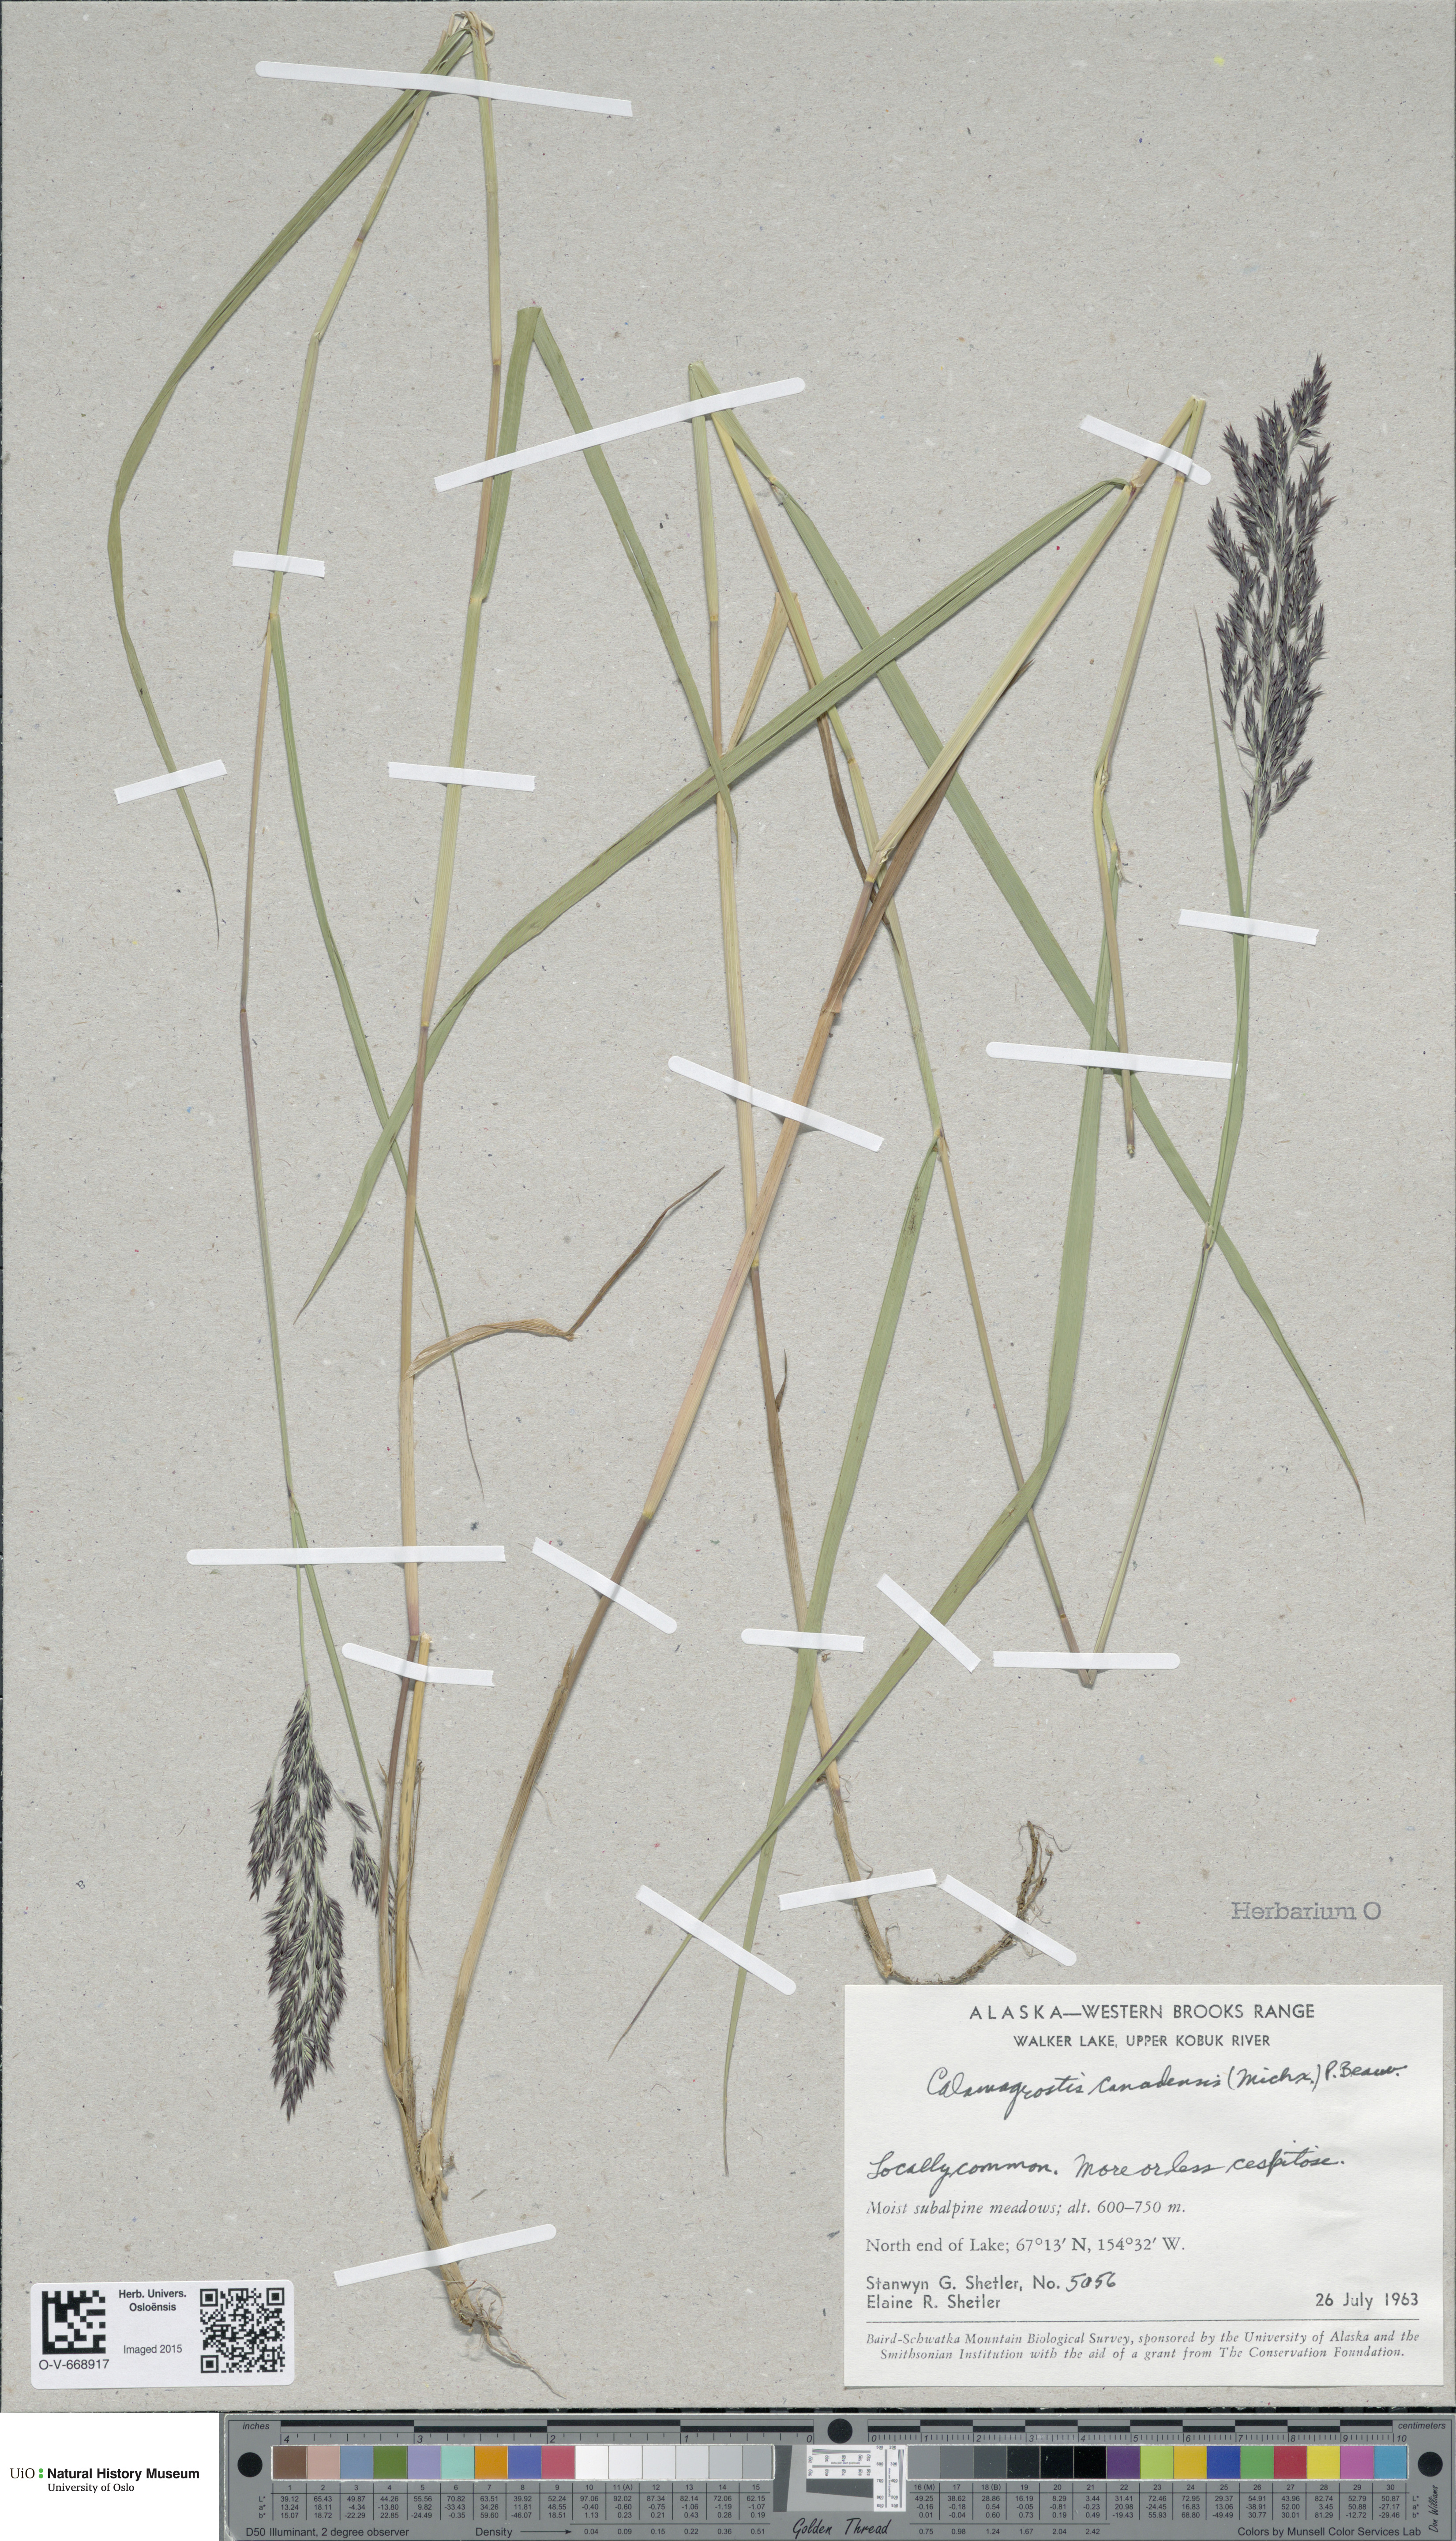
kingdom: Plantae
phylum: Tracheophyta
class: Liliopsida
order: Poales
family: Poaceae
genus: Calamagrostis
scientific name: Calamagrostis canadensis
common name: Canada bluejoint
